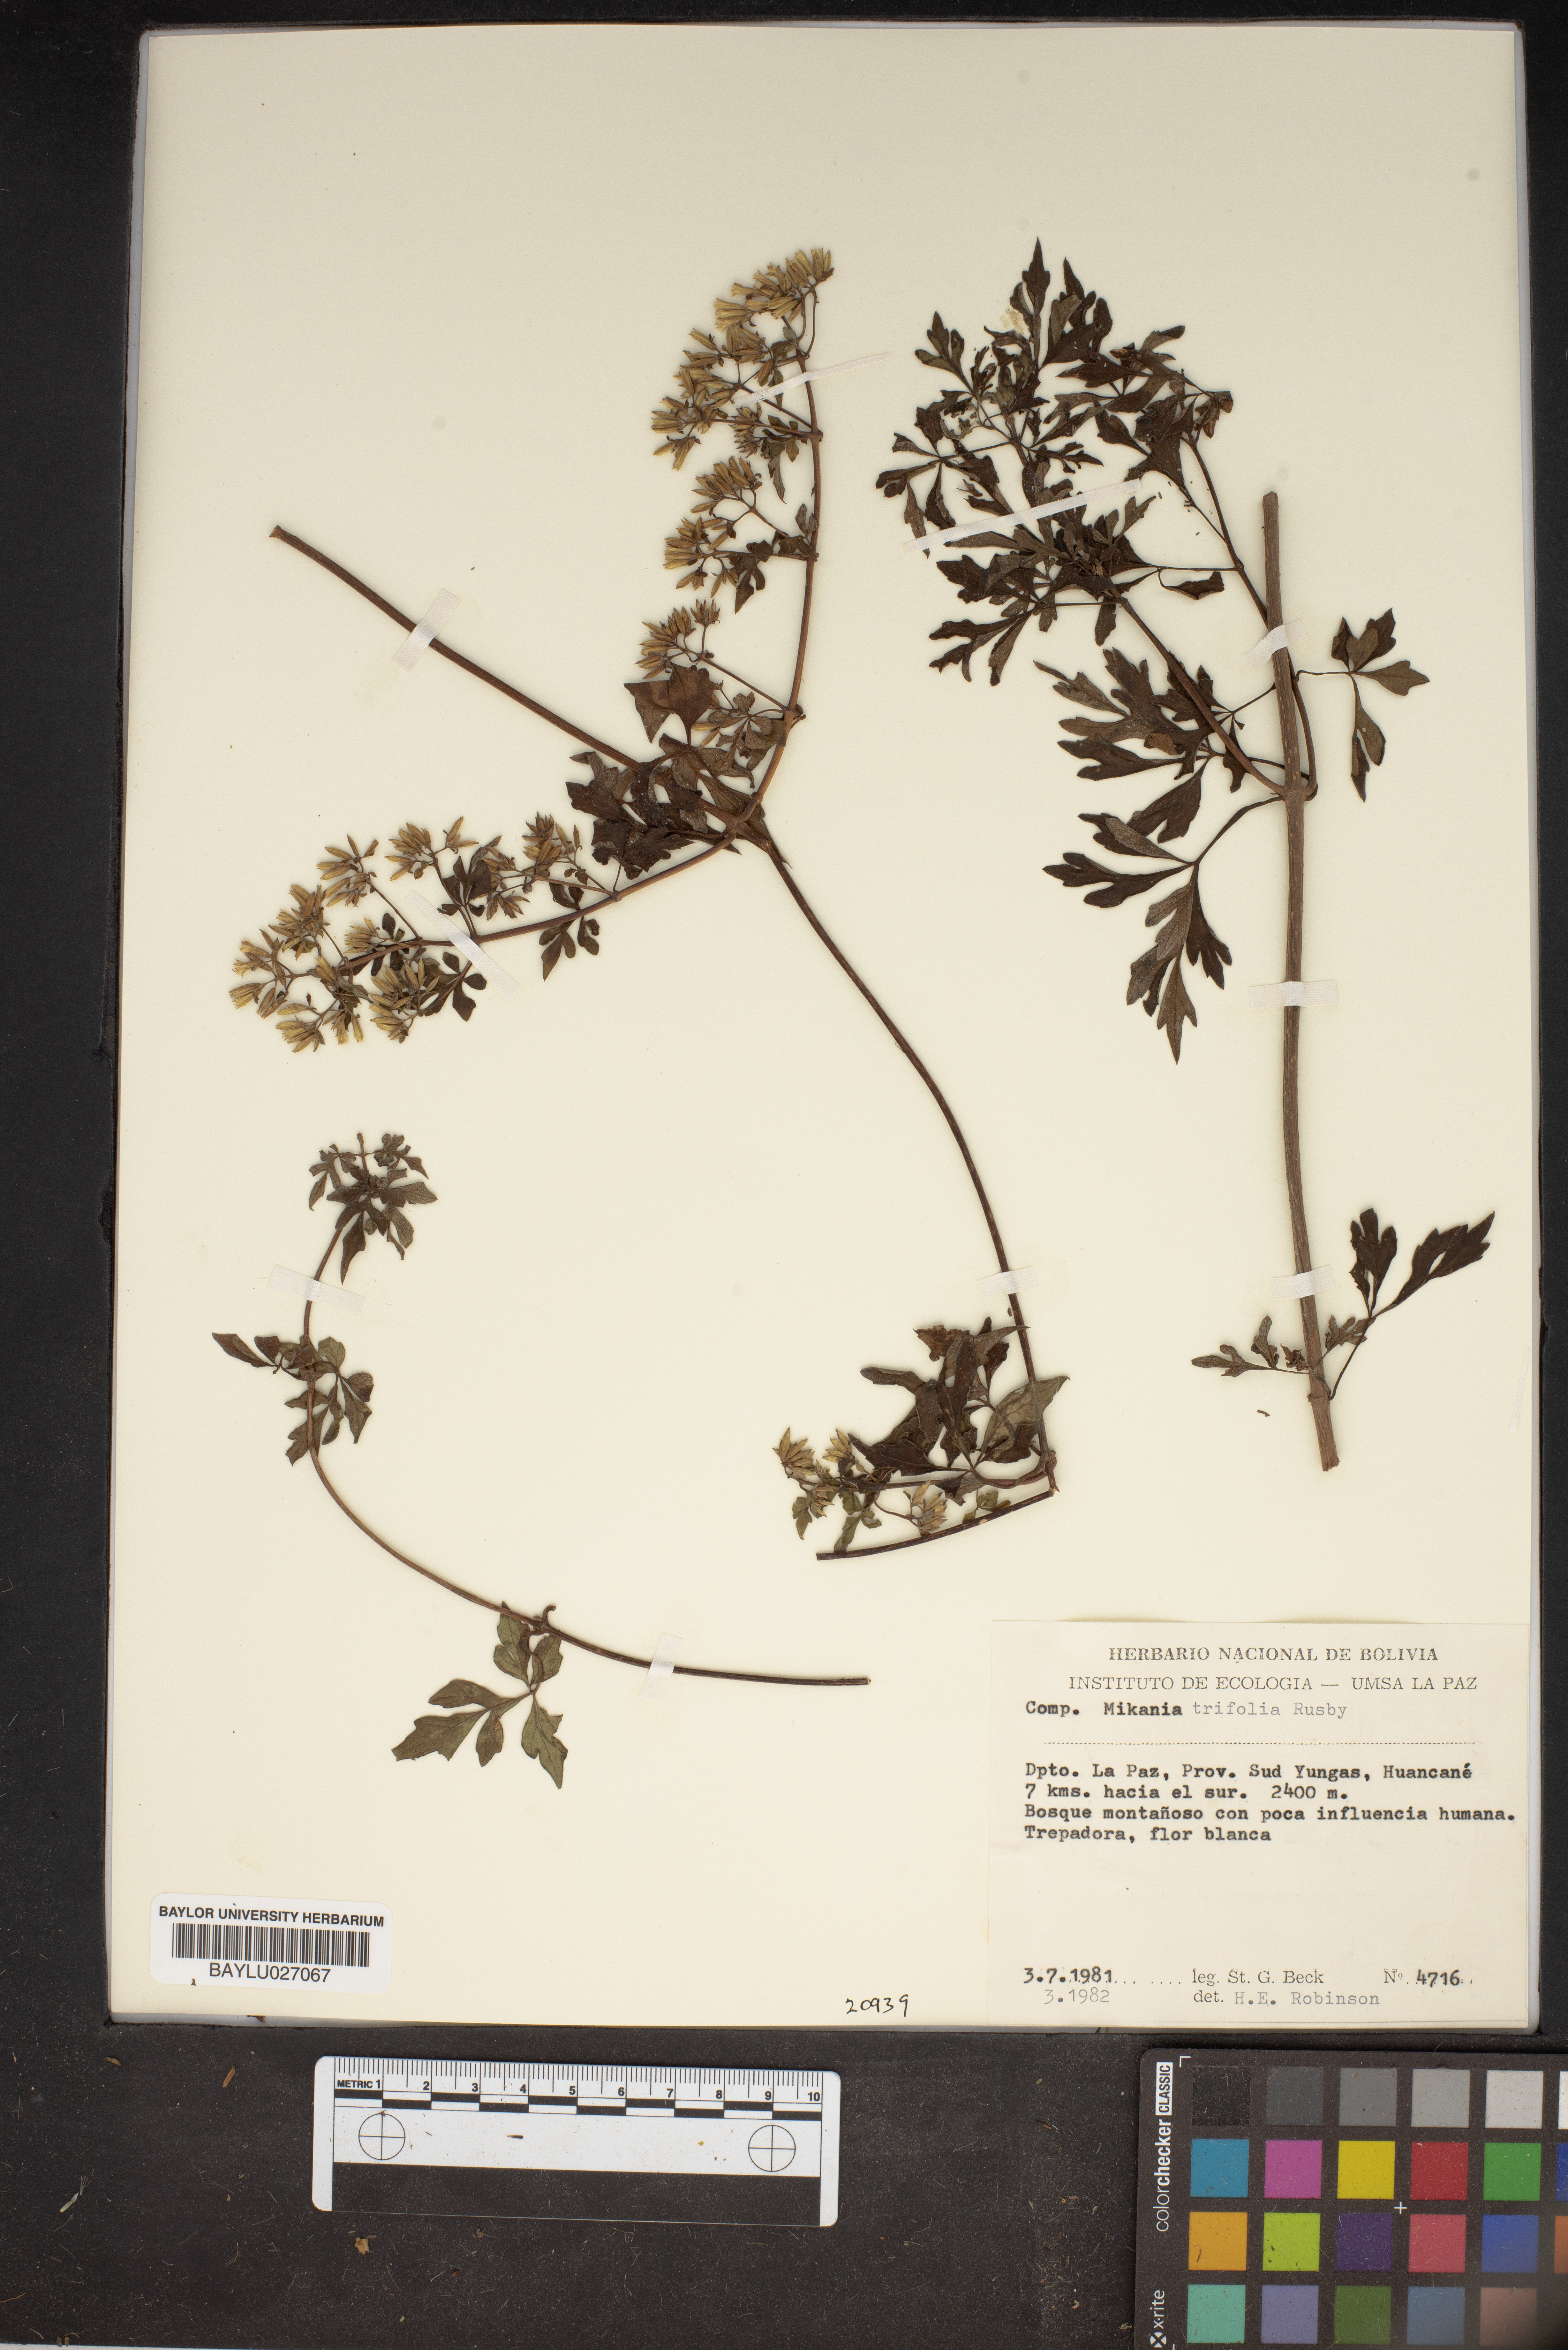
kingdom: Plantae
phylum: Tracheophyta
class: Magnoliopsida
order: Asterales
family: Asteraceae
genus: Mikania
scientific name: Mikania ternata
